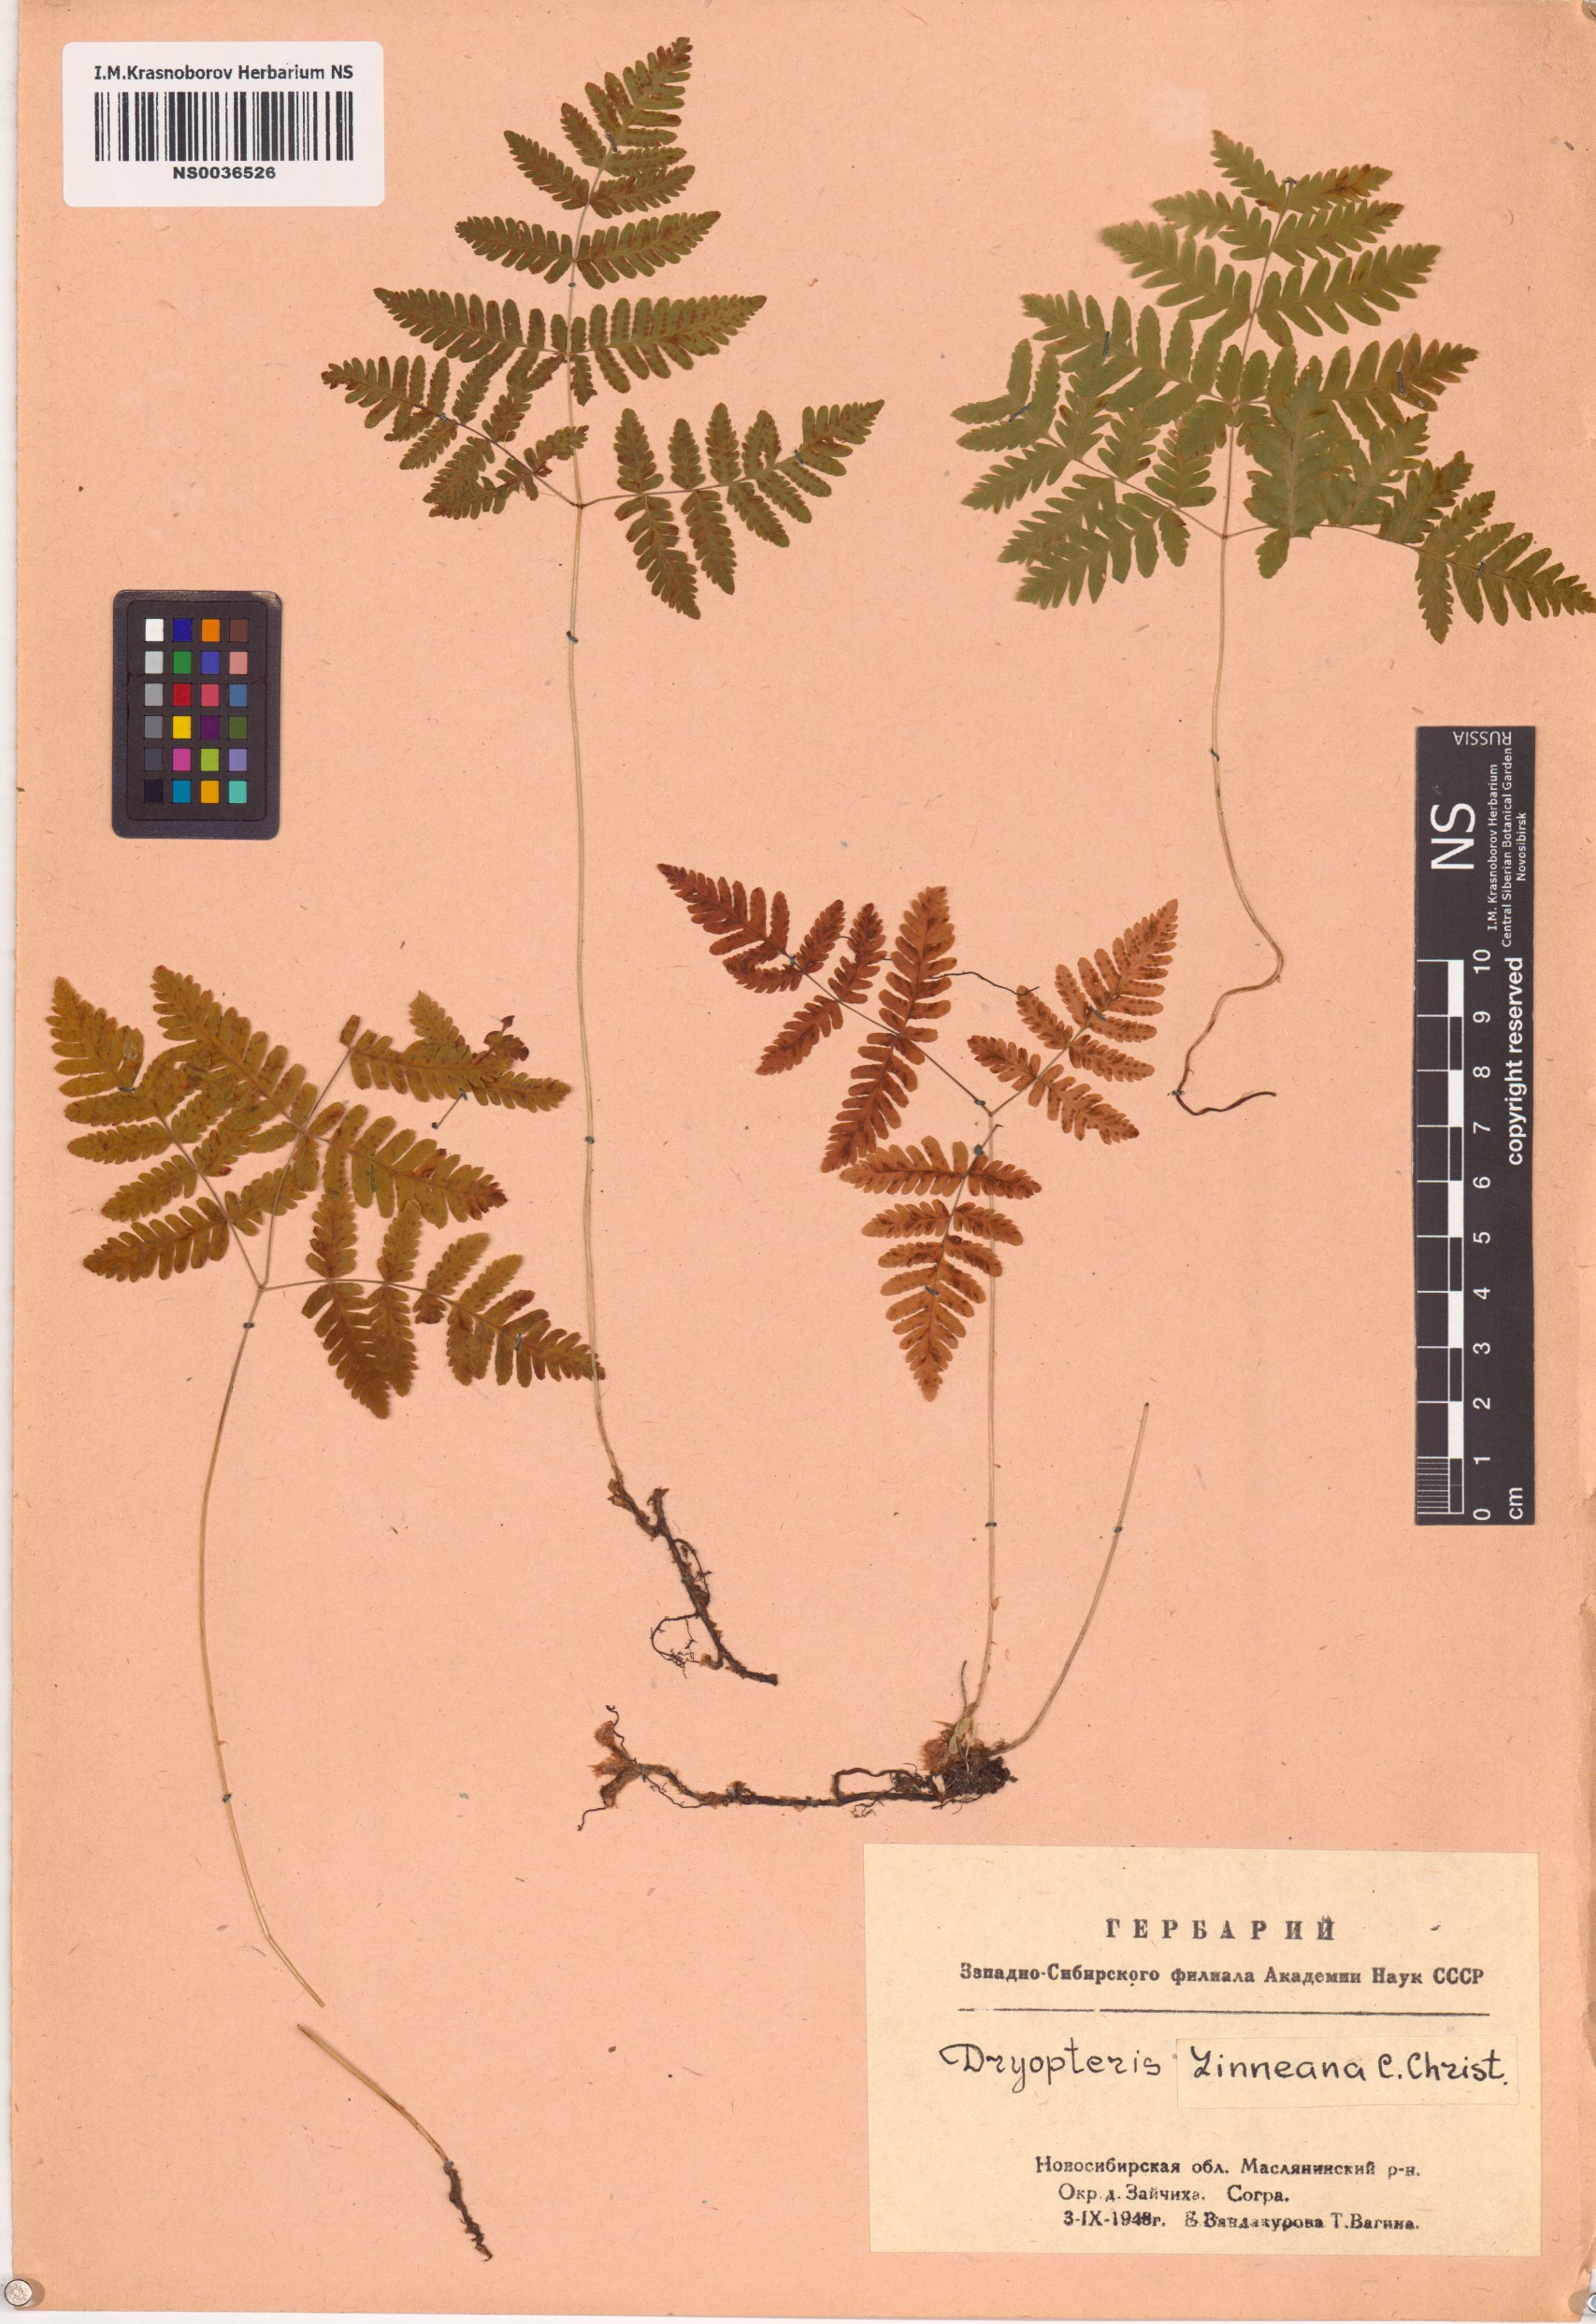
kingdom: Plantae
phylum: Tracheophyta
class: Polypodiopsida
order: Polypodiales
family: Cystopteridaceae
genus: Gymnocarpium
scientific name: Gymnocarpium dryopteris
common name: Oak fern
